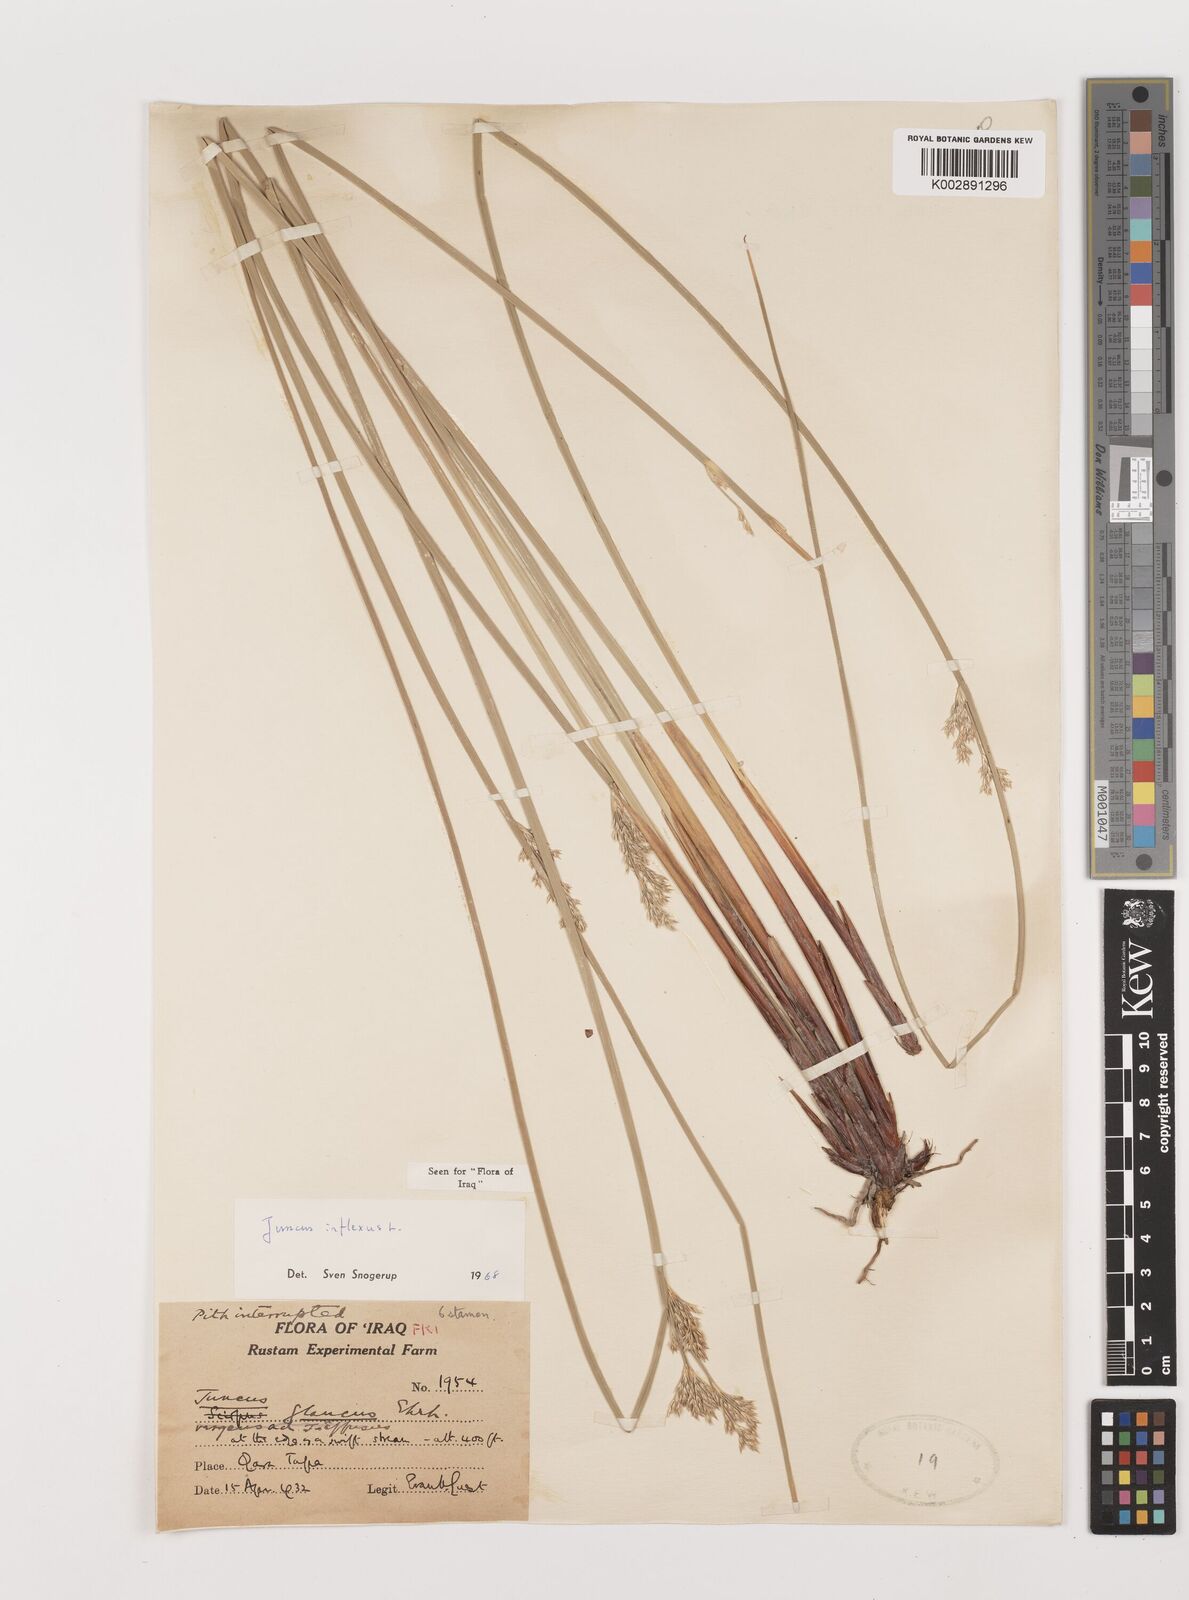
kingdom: Plantae
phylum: Tracheophyta
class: Liliopsida
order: Poales
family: Juncaceae
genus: Juncus
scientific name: Juncus inflexus
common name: Hard rush
